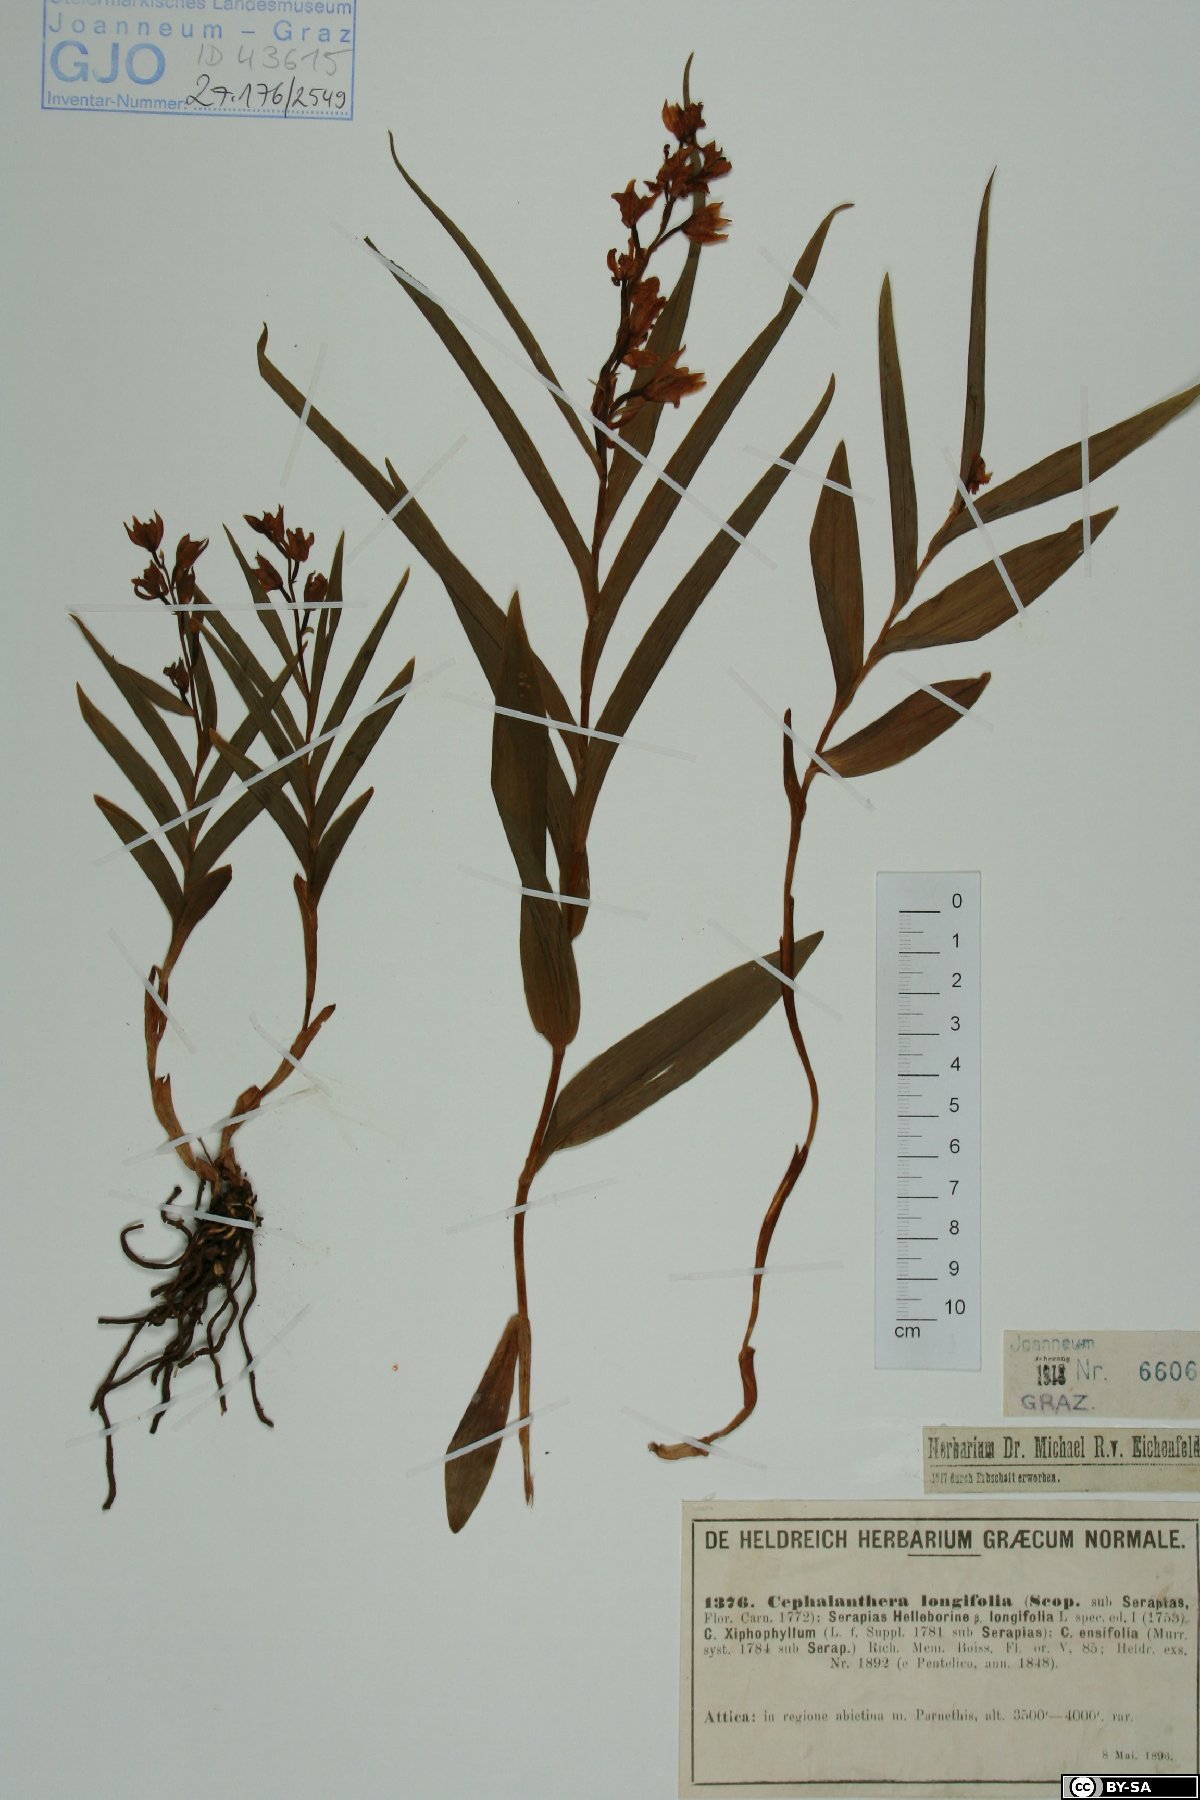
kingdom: Plantae
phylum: Tracheophyta
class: Liliopsida
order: Asparagales
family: Orchidaceae
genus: Cephalanthera
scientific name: Cephalanthera longifolia
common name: Narrow-leaved helleborine
